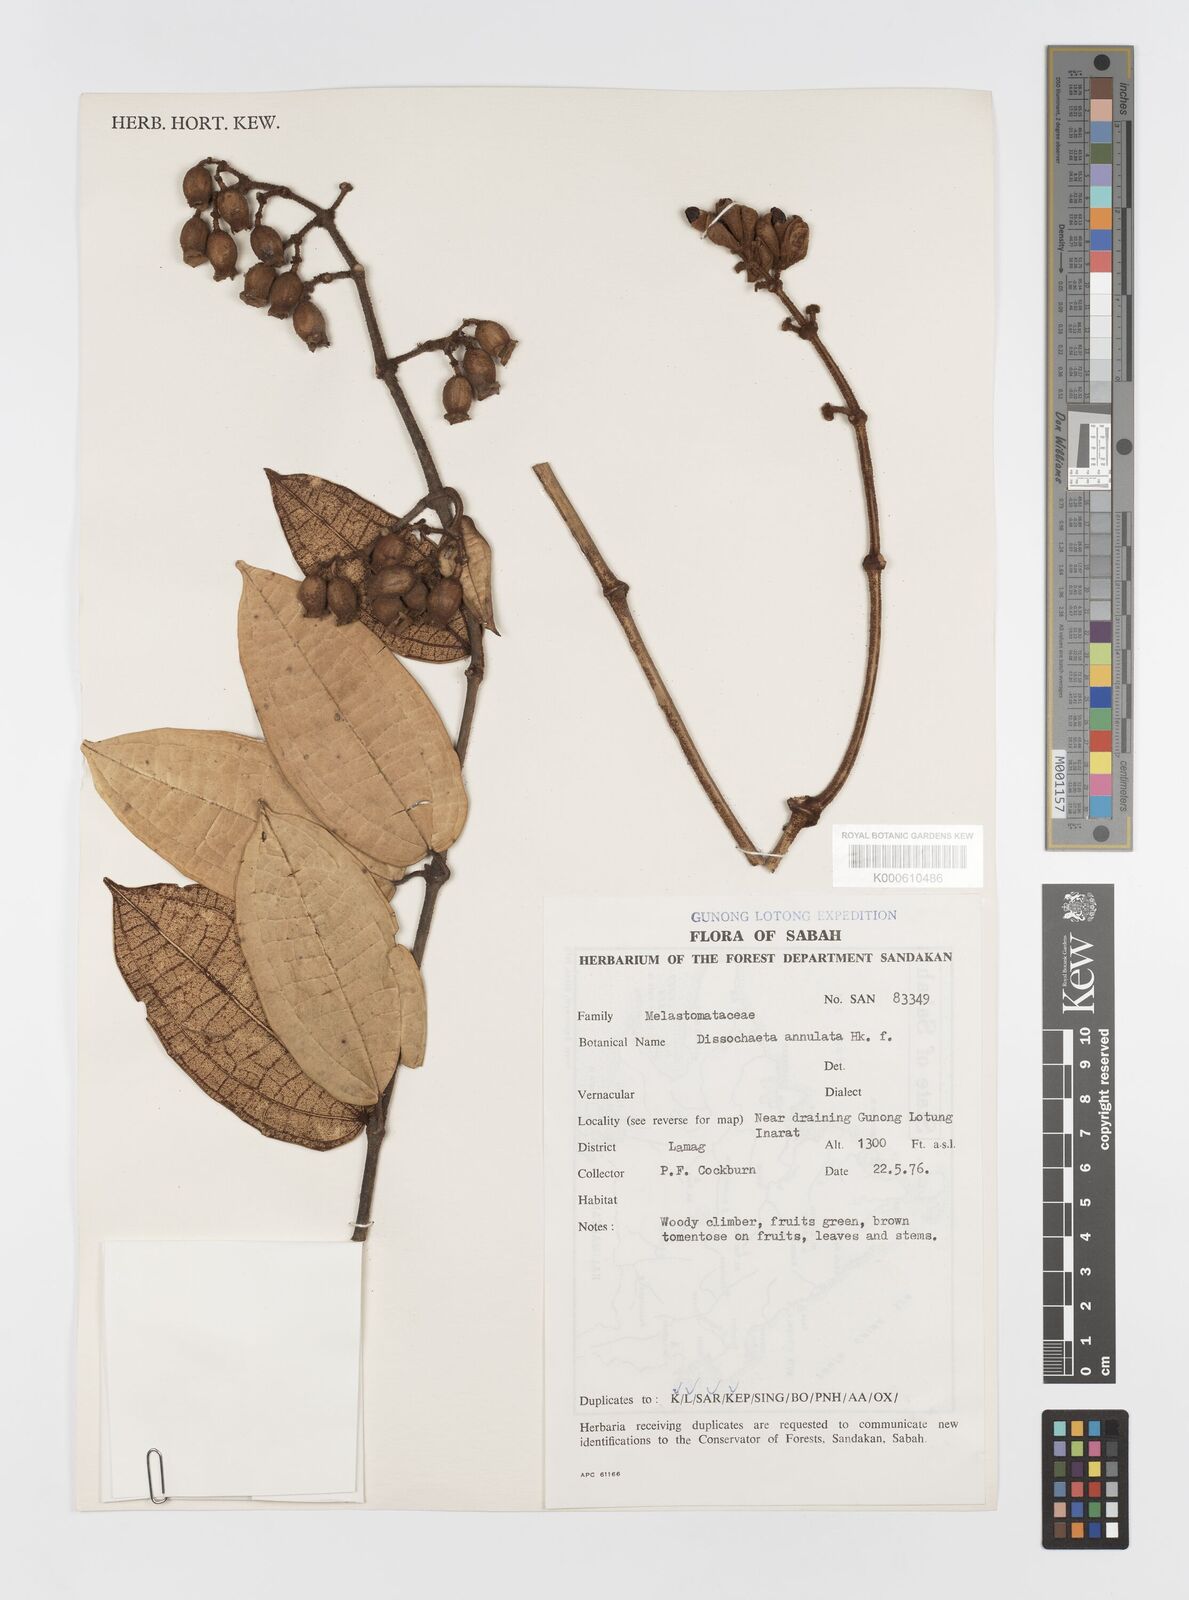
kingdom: Plantae
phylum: Tracheophyta
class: Magnoliopsida
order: Myrtales
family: Melastomataceae
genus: Dissochaeta
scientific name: Dissochaeta
